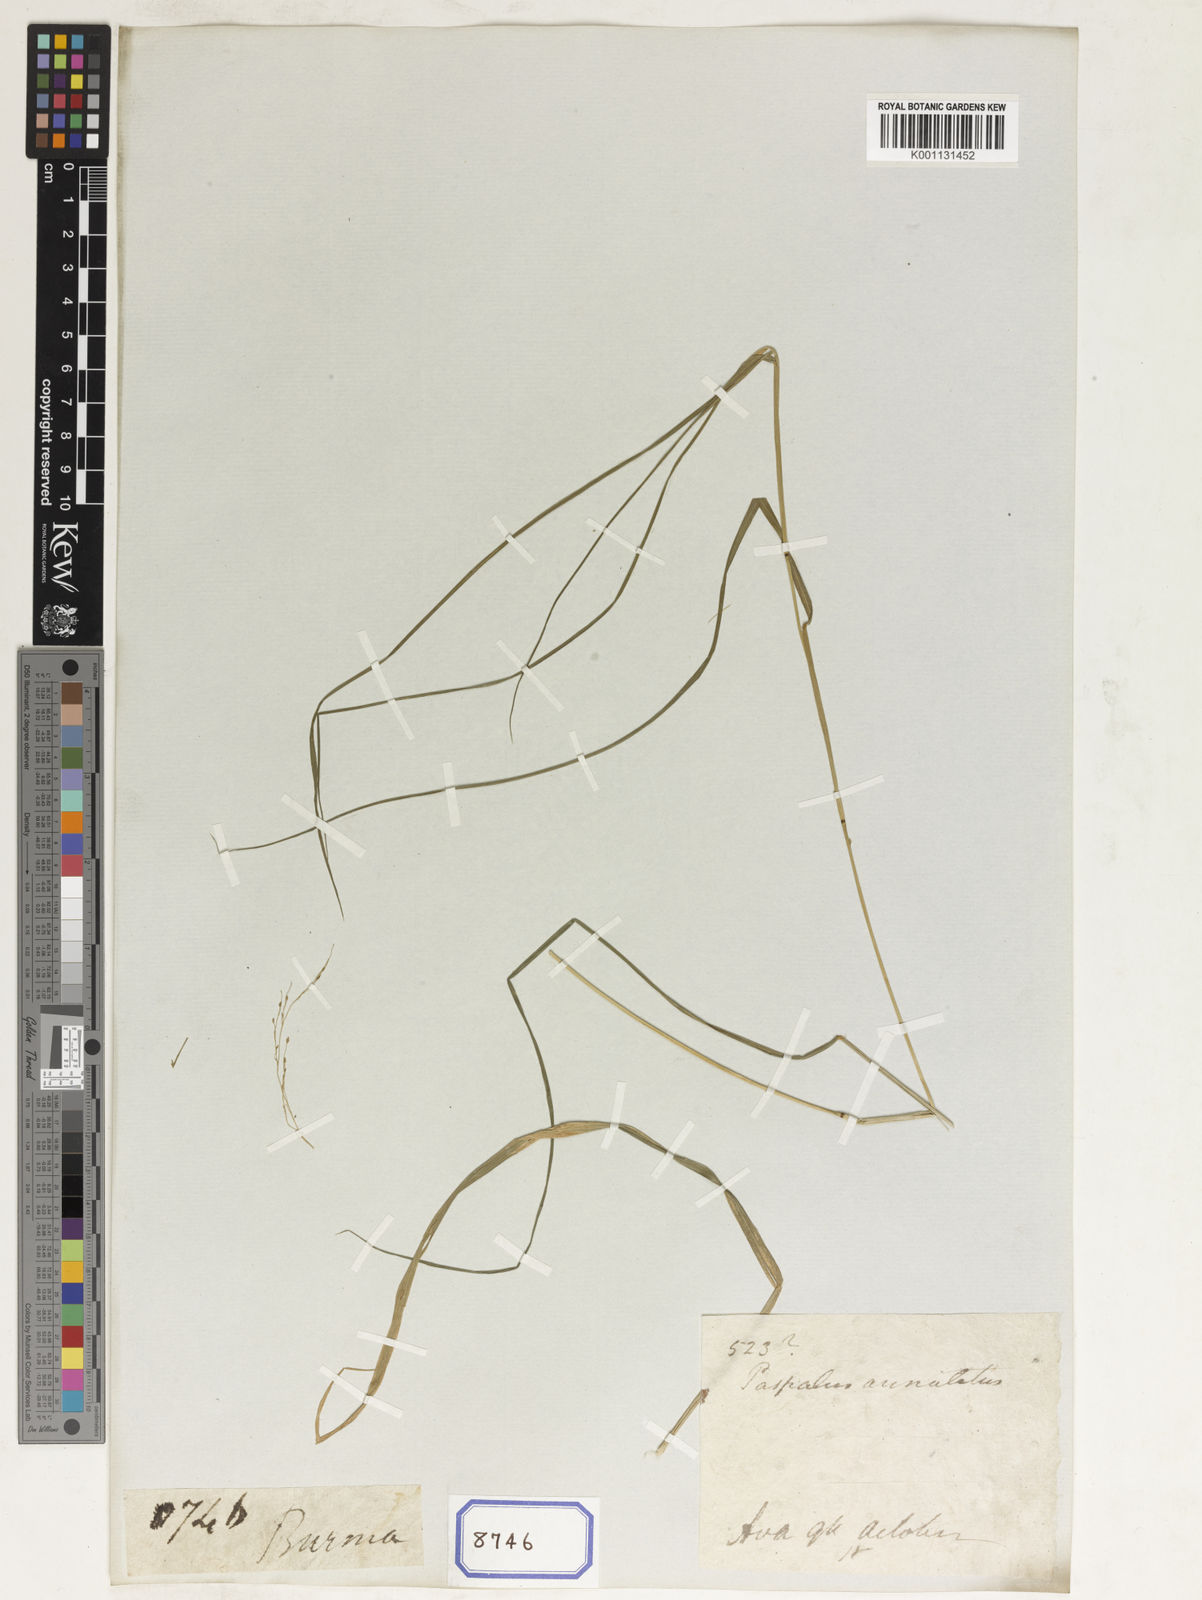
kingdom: Plantae
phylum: Tracheophyta
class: Liliopsida
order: Poales
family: Poaceae
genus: Panicum
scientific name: Panicum
